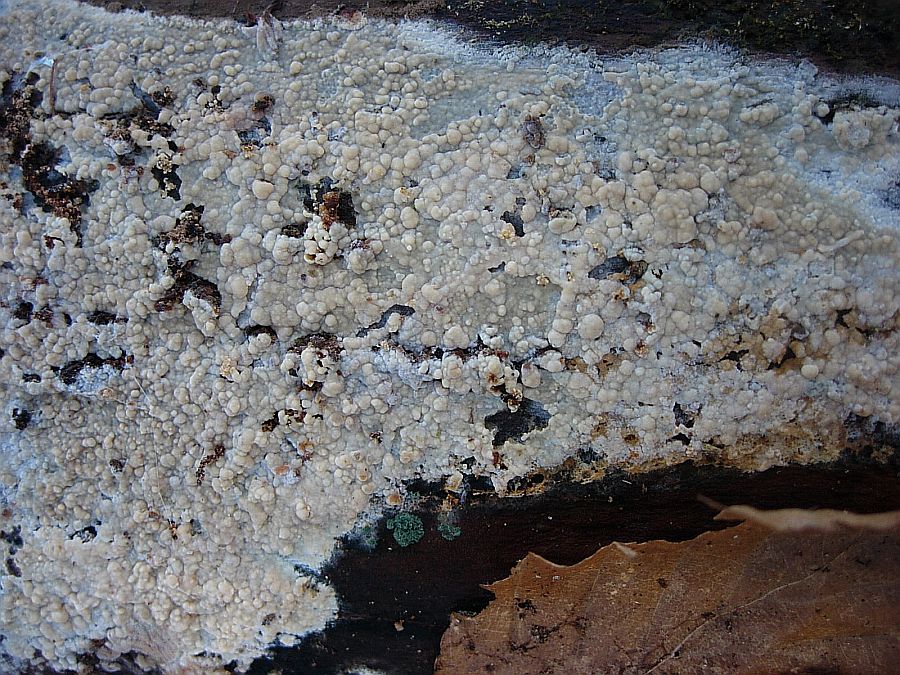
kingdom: Fungi
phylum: Basidiomycota
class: Agaricomycetes
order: Polyporales
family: Hyphodermataceae
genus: Hyphoderma
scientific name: Hyphoderma medioburiense
